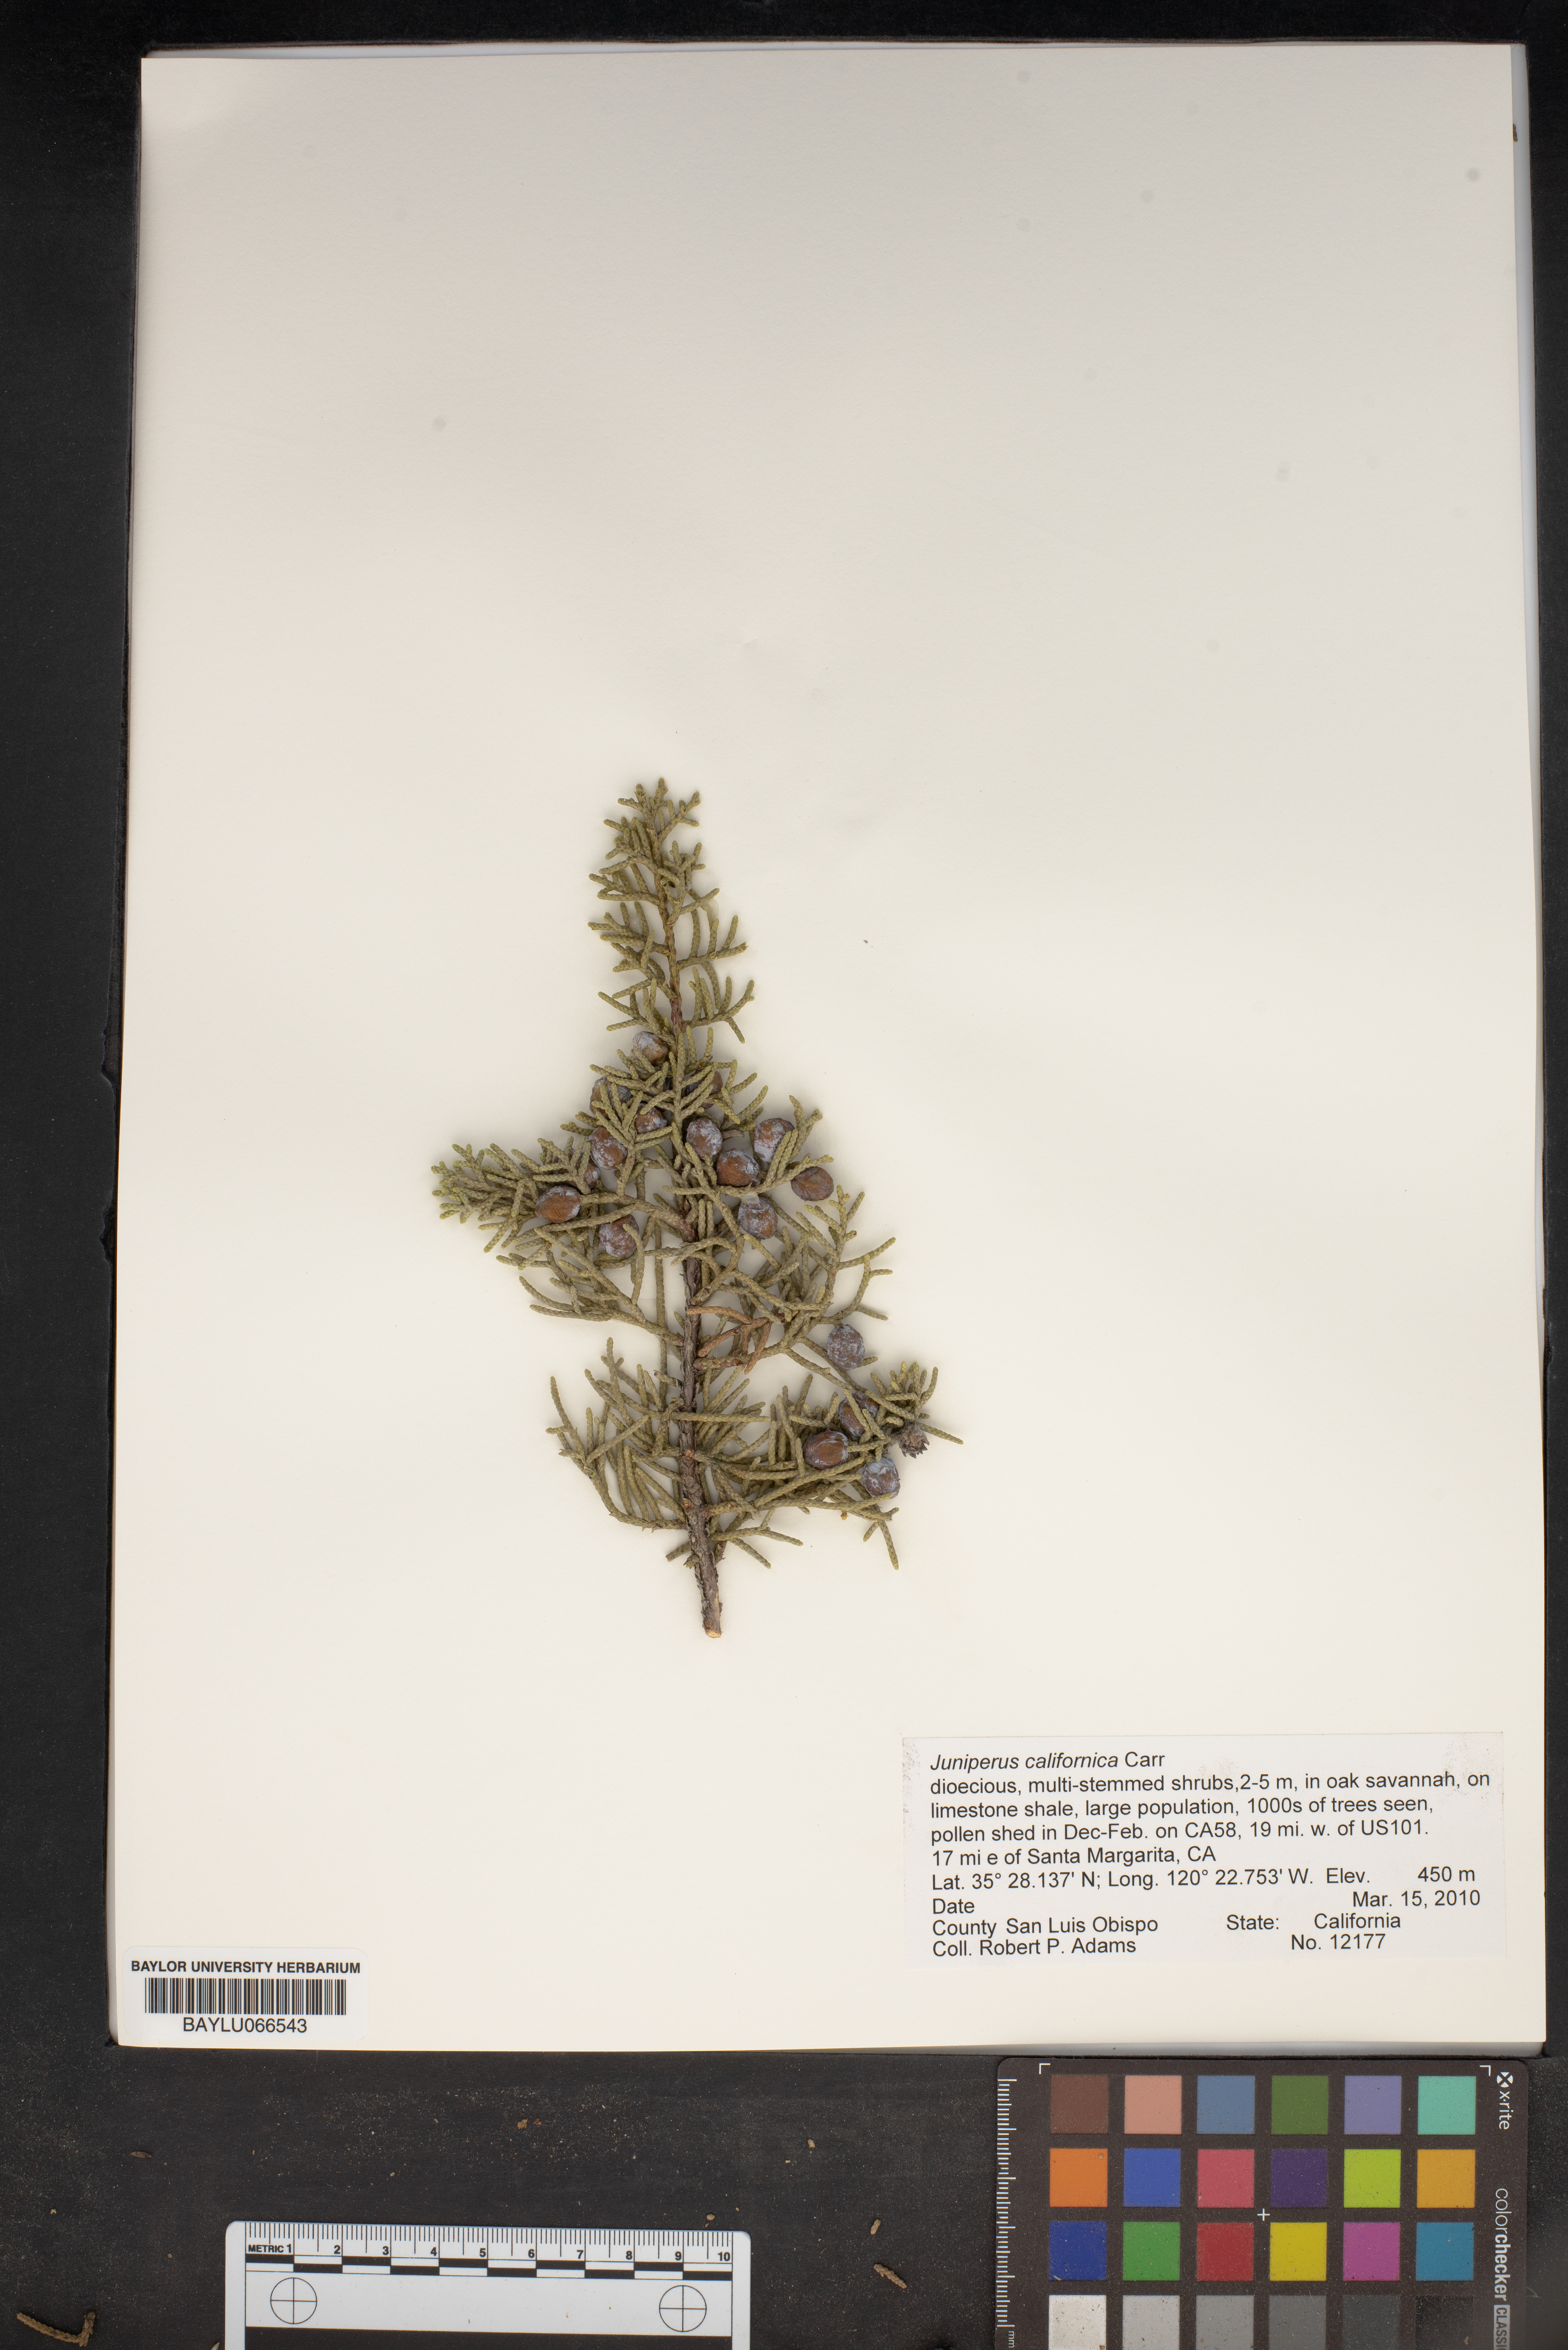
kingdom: Plantae
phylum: Tracheophyta
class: Pinopsida
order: Pinales
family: Cupressaceae
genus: Juniperus
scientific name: Juniperus californica
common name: California juniper
